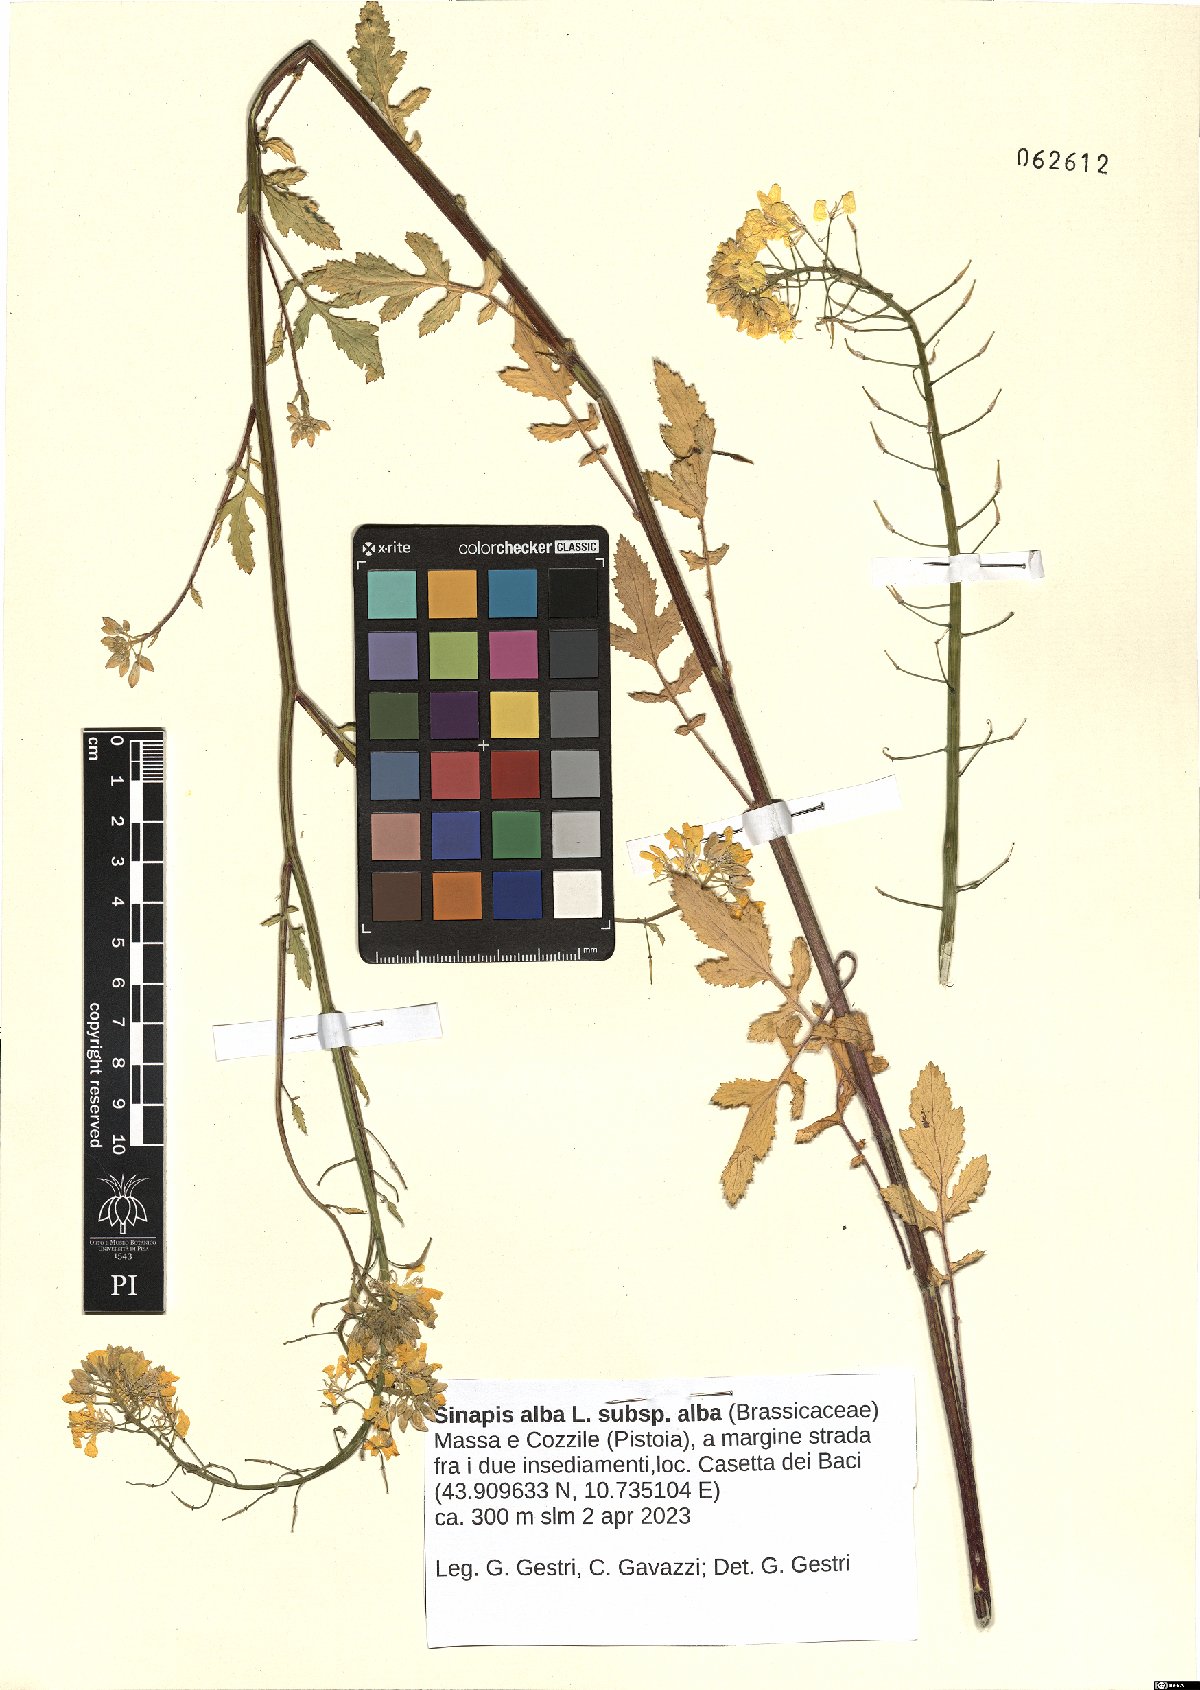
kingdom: Plantae
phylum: Tracheophyta
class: Magnoliopsida
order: Brassicales
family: Brassicaceae
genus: Sinapis
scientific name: Sinapis alba
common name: White mustard
